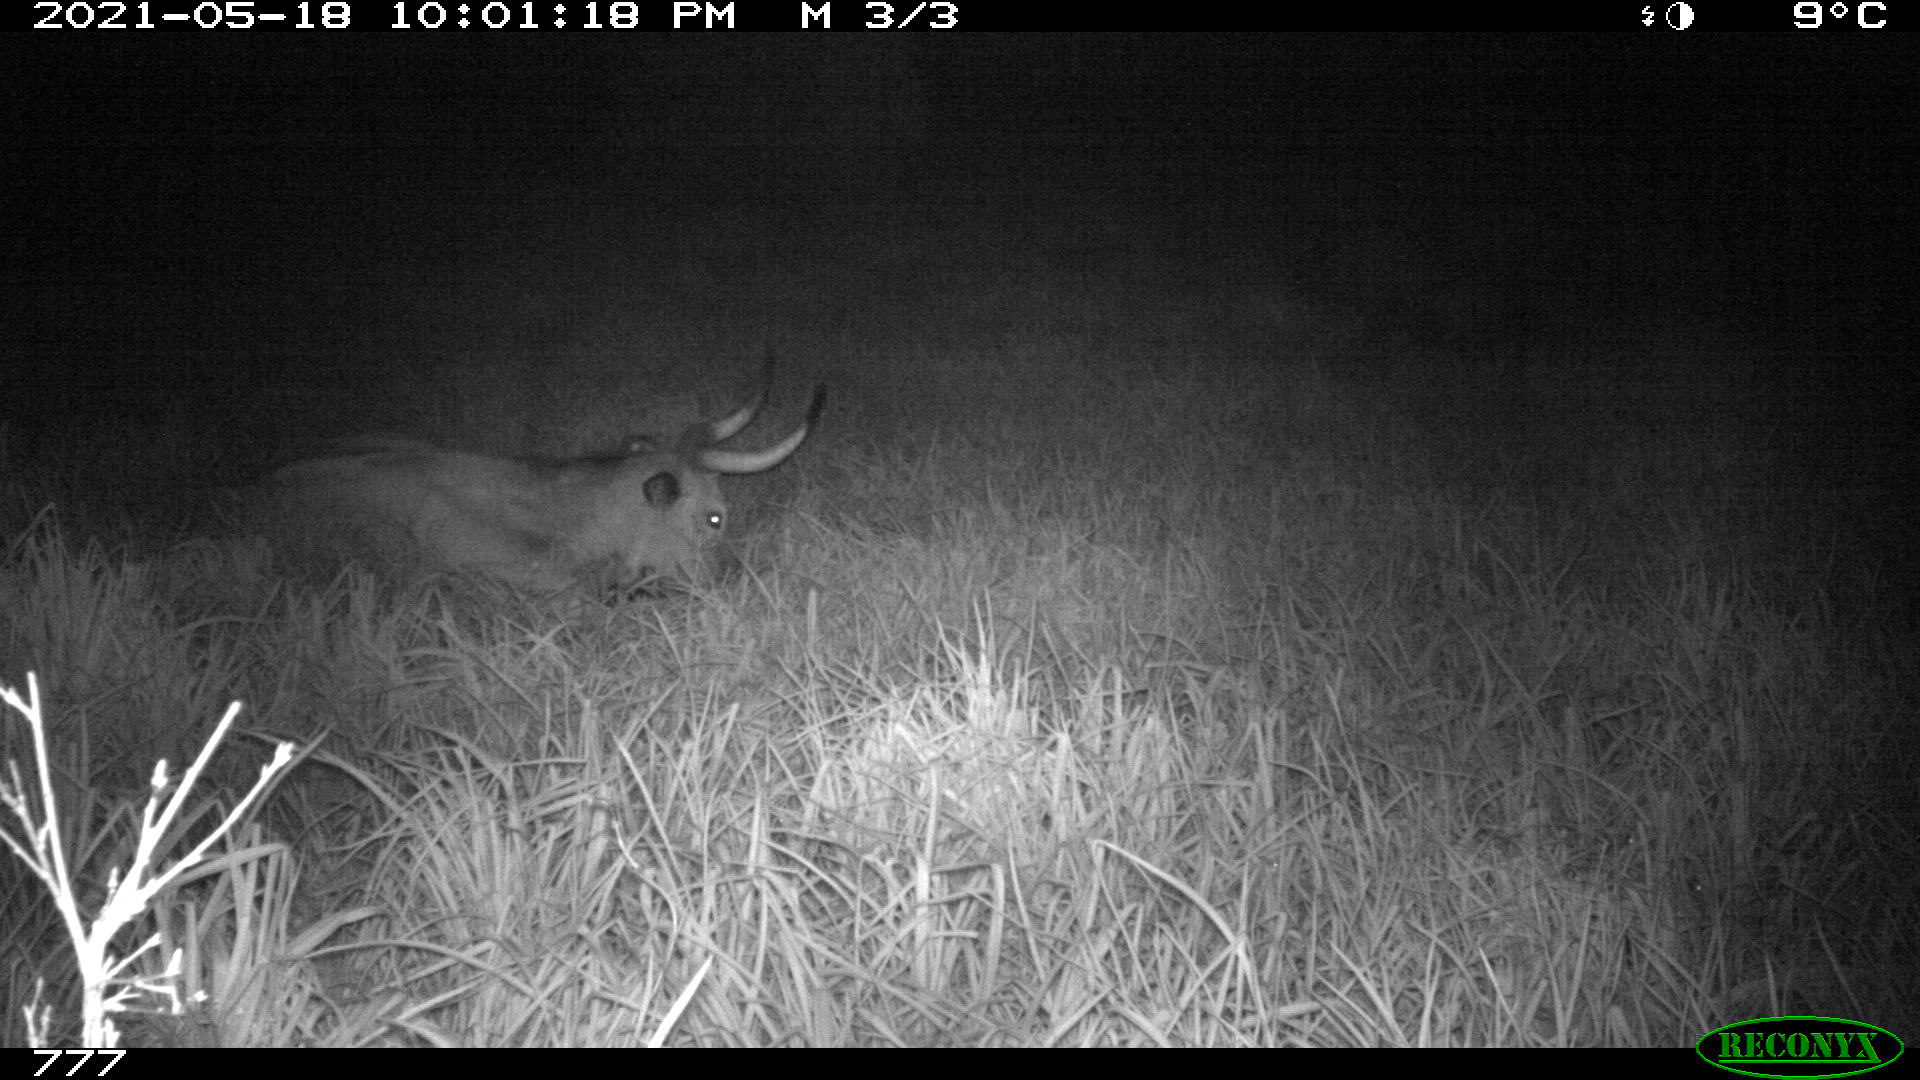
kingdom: Animalia
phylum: Chordata
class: Mammalia
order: Artiodactyla
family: Bovidae
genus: Bos
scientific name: Bos taurus
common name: Domesticated cattle
